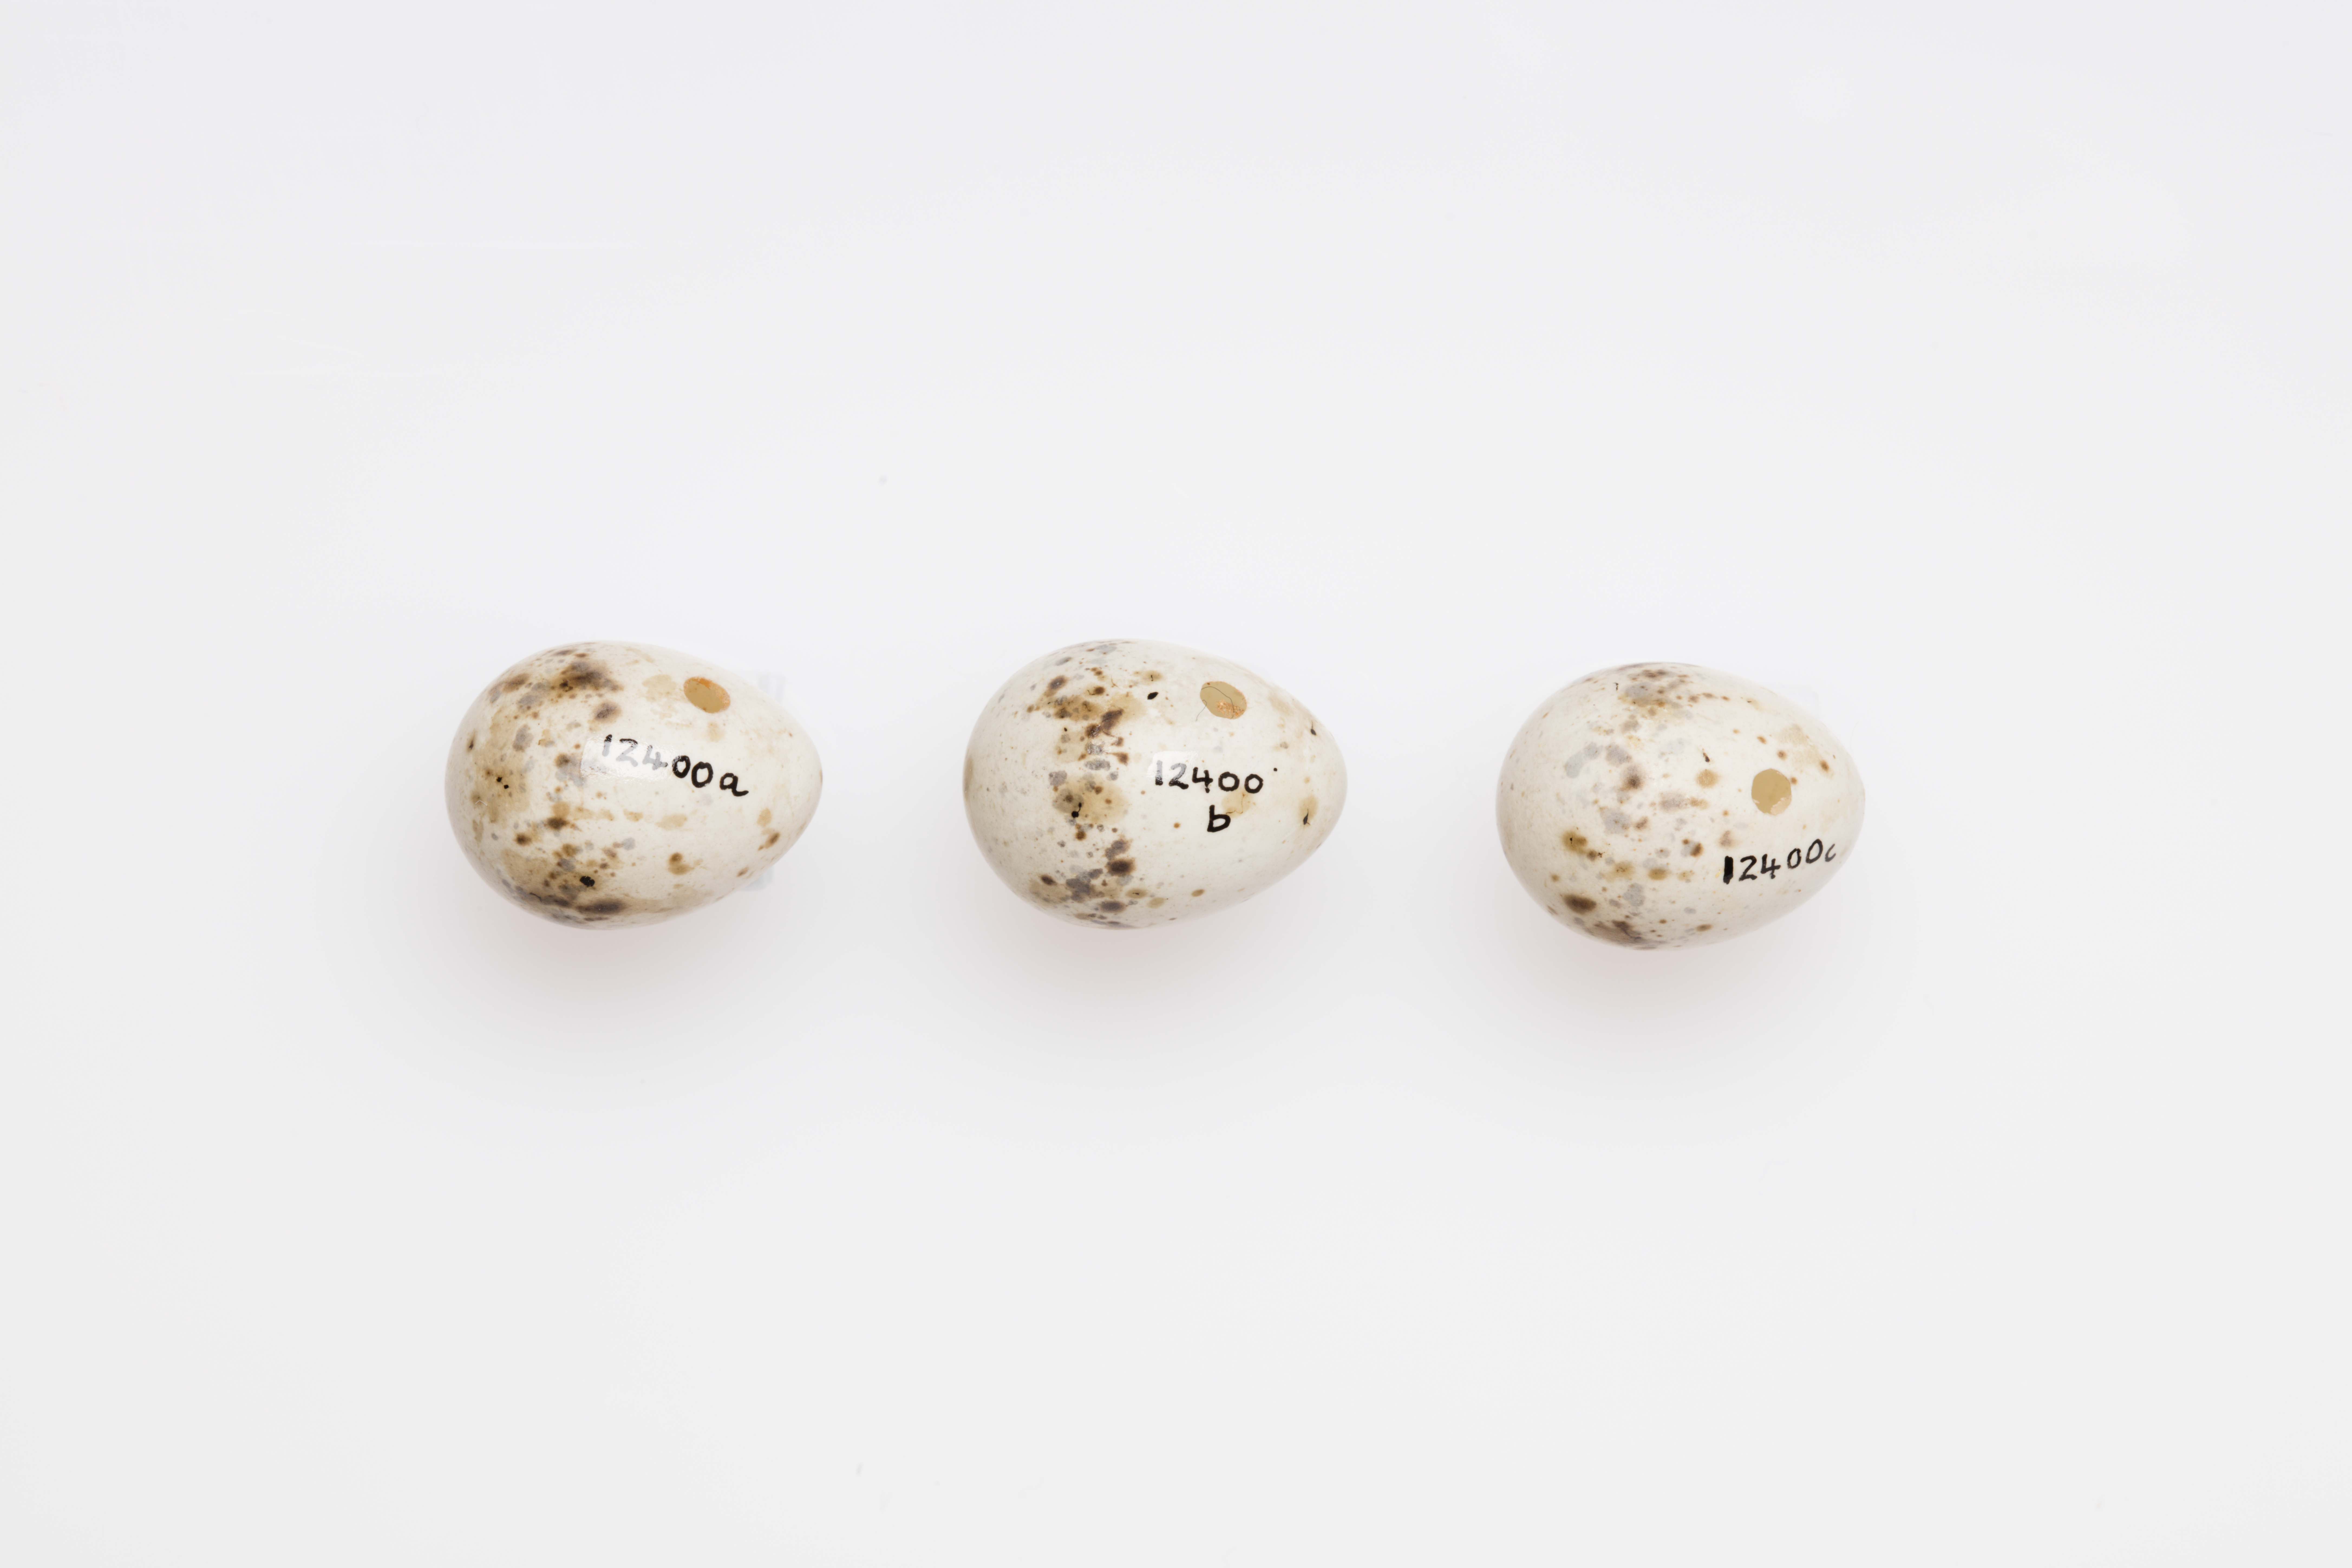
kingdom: Animalia
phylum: Chordata
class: Aves
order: Passeriformes
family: Sylviidae
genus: Sylvia
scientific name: Sylvia curruca
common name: Lesser whitethroat
